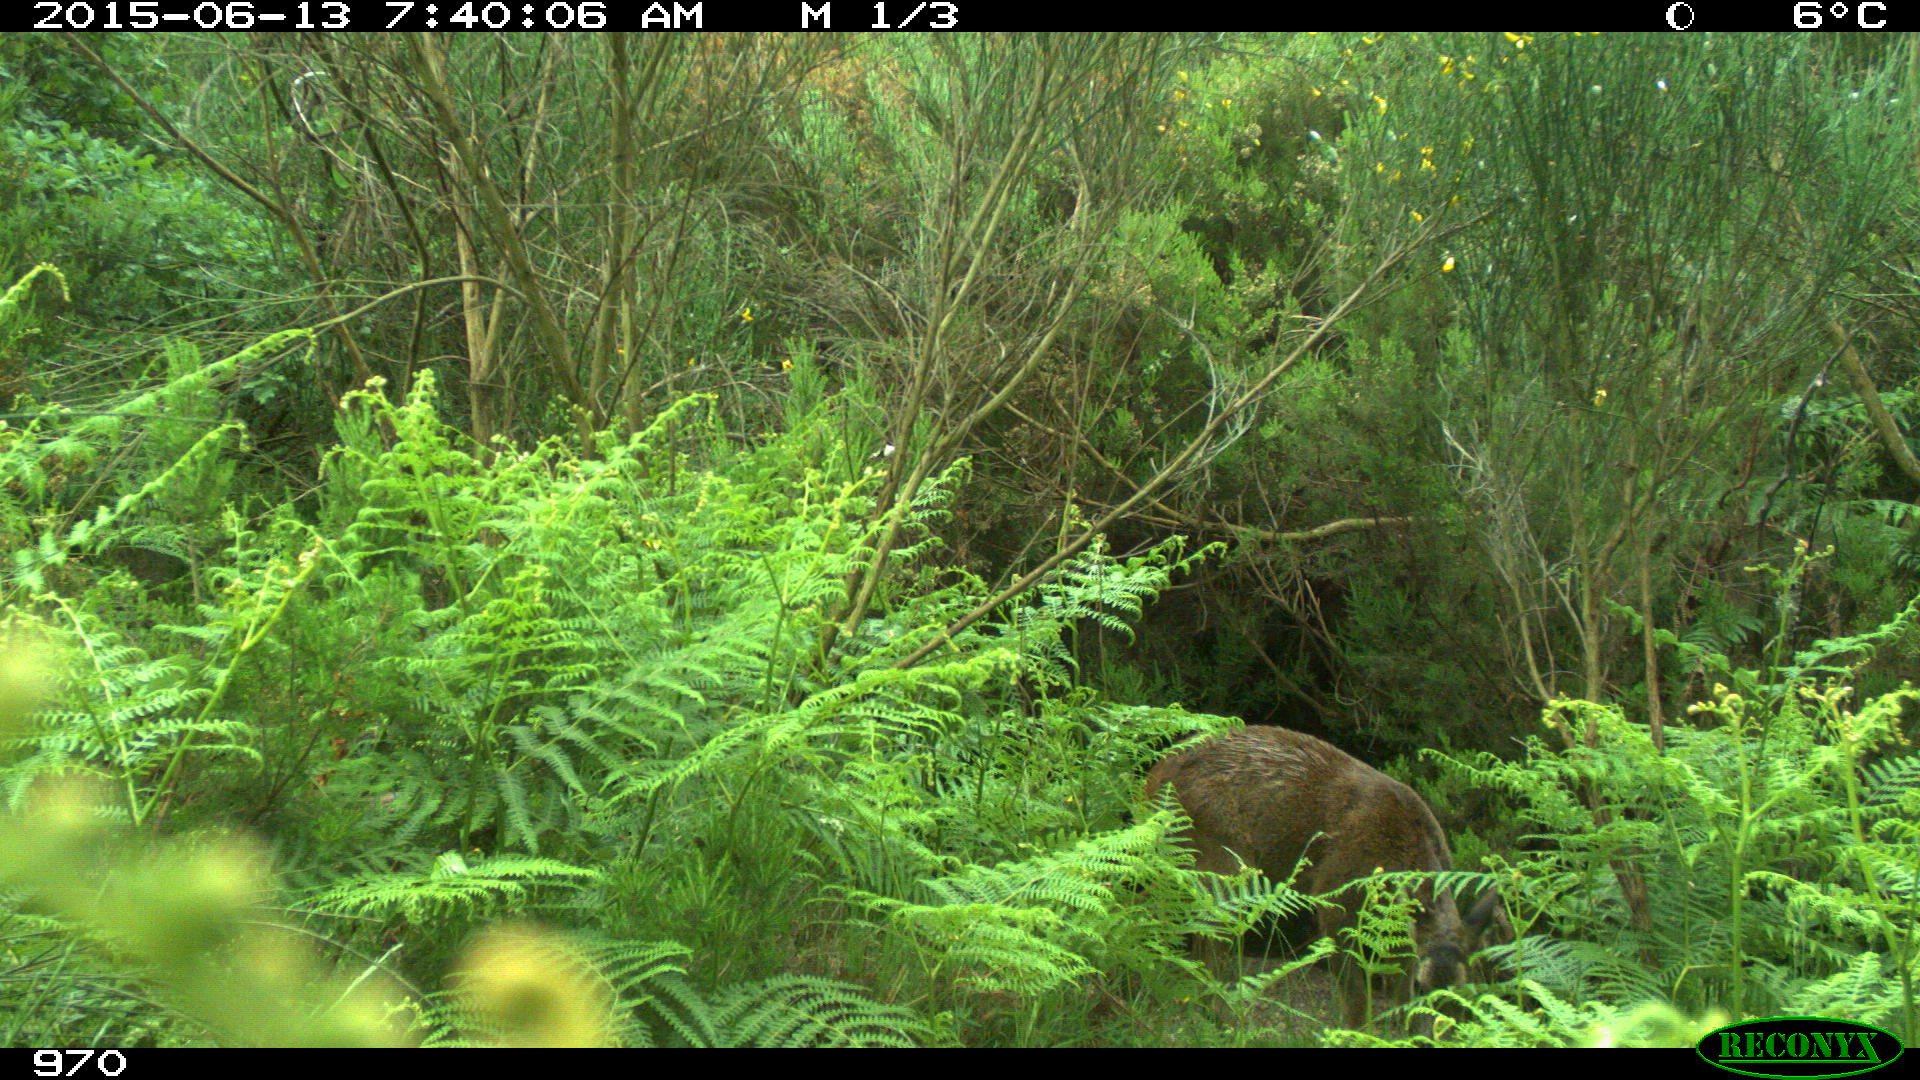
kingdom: Animalia
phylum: Chordata
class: Mammalia
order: Artiodactyla
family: Cervidae
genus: Capreolus
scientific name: Capreolus capreolus
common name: Western roe deer
